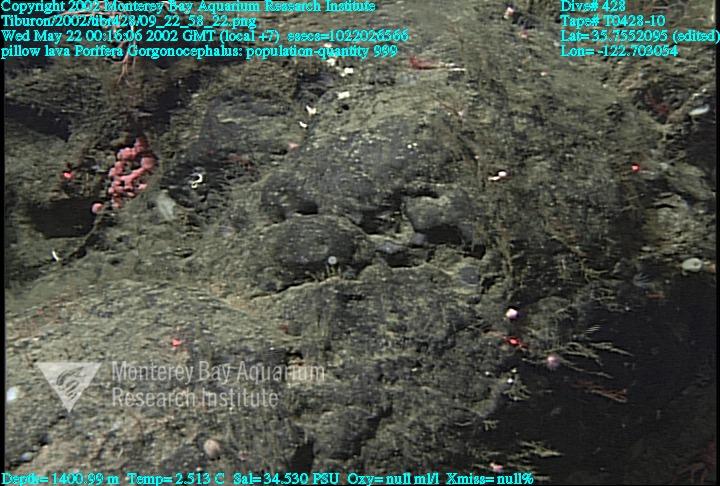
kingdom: Animalia
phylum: Porifera
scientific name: Porifera
